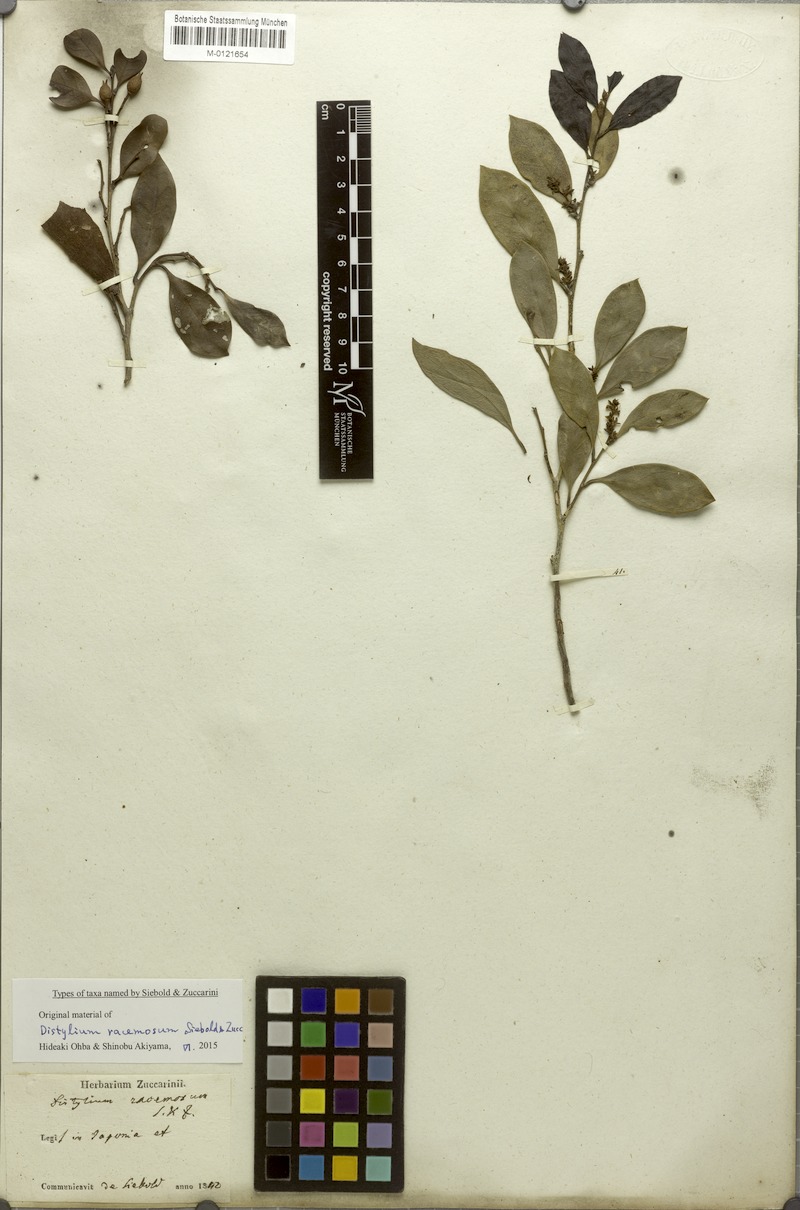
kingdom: Plantae
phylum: Tracheophyta
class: Magnoliopsida
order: Saxifragales
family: Hamamelidaceae
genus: Distylium
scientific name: Distylium racemosum
